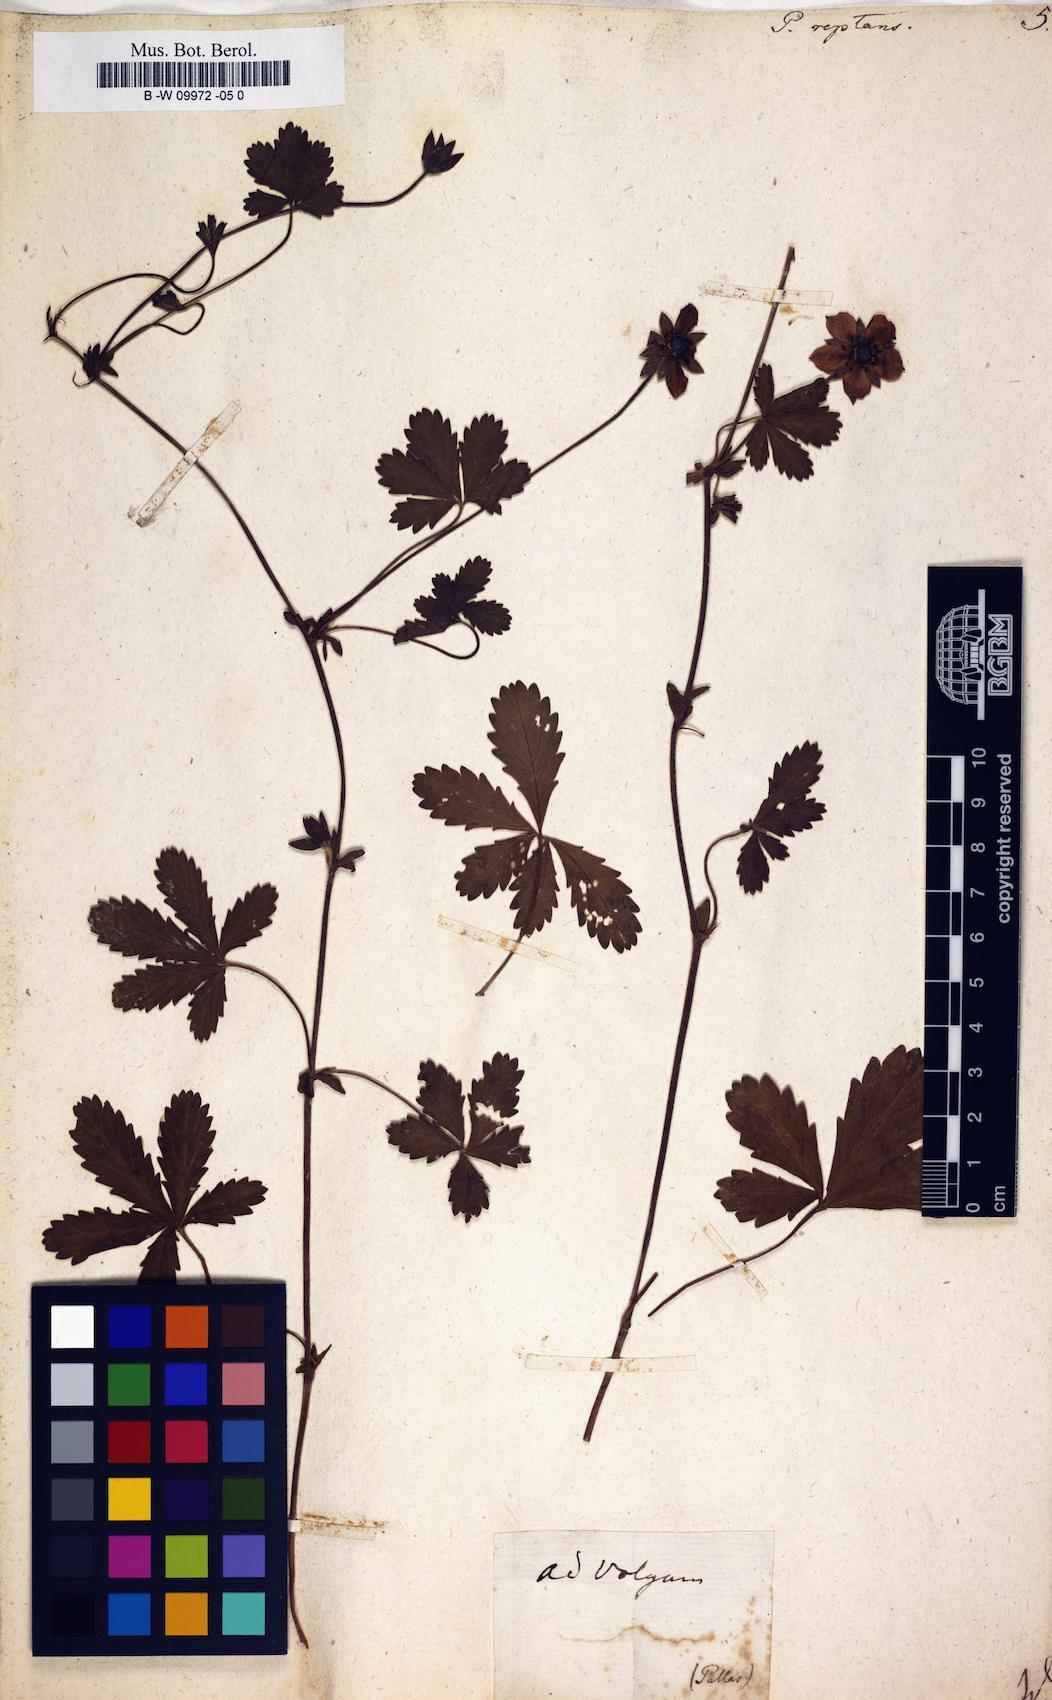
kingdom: Plantae
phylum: Tracheophyta
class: Magnoliopsida
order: Rosales
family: Rosaceae
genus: Potentilla
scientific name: Potentilla reptans
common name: Creeping cinquefoil
